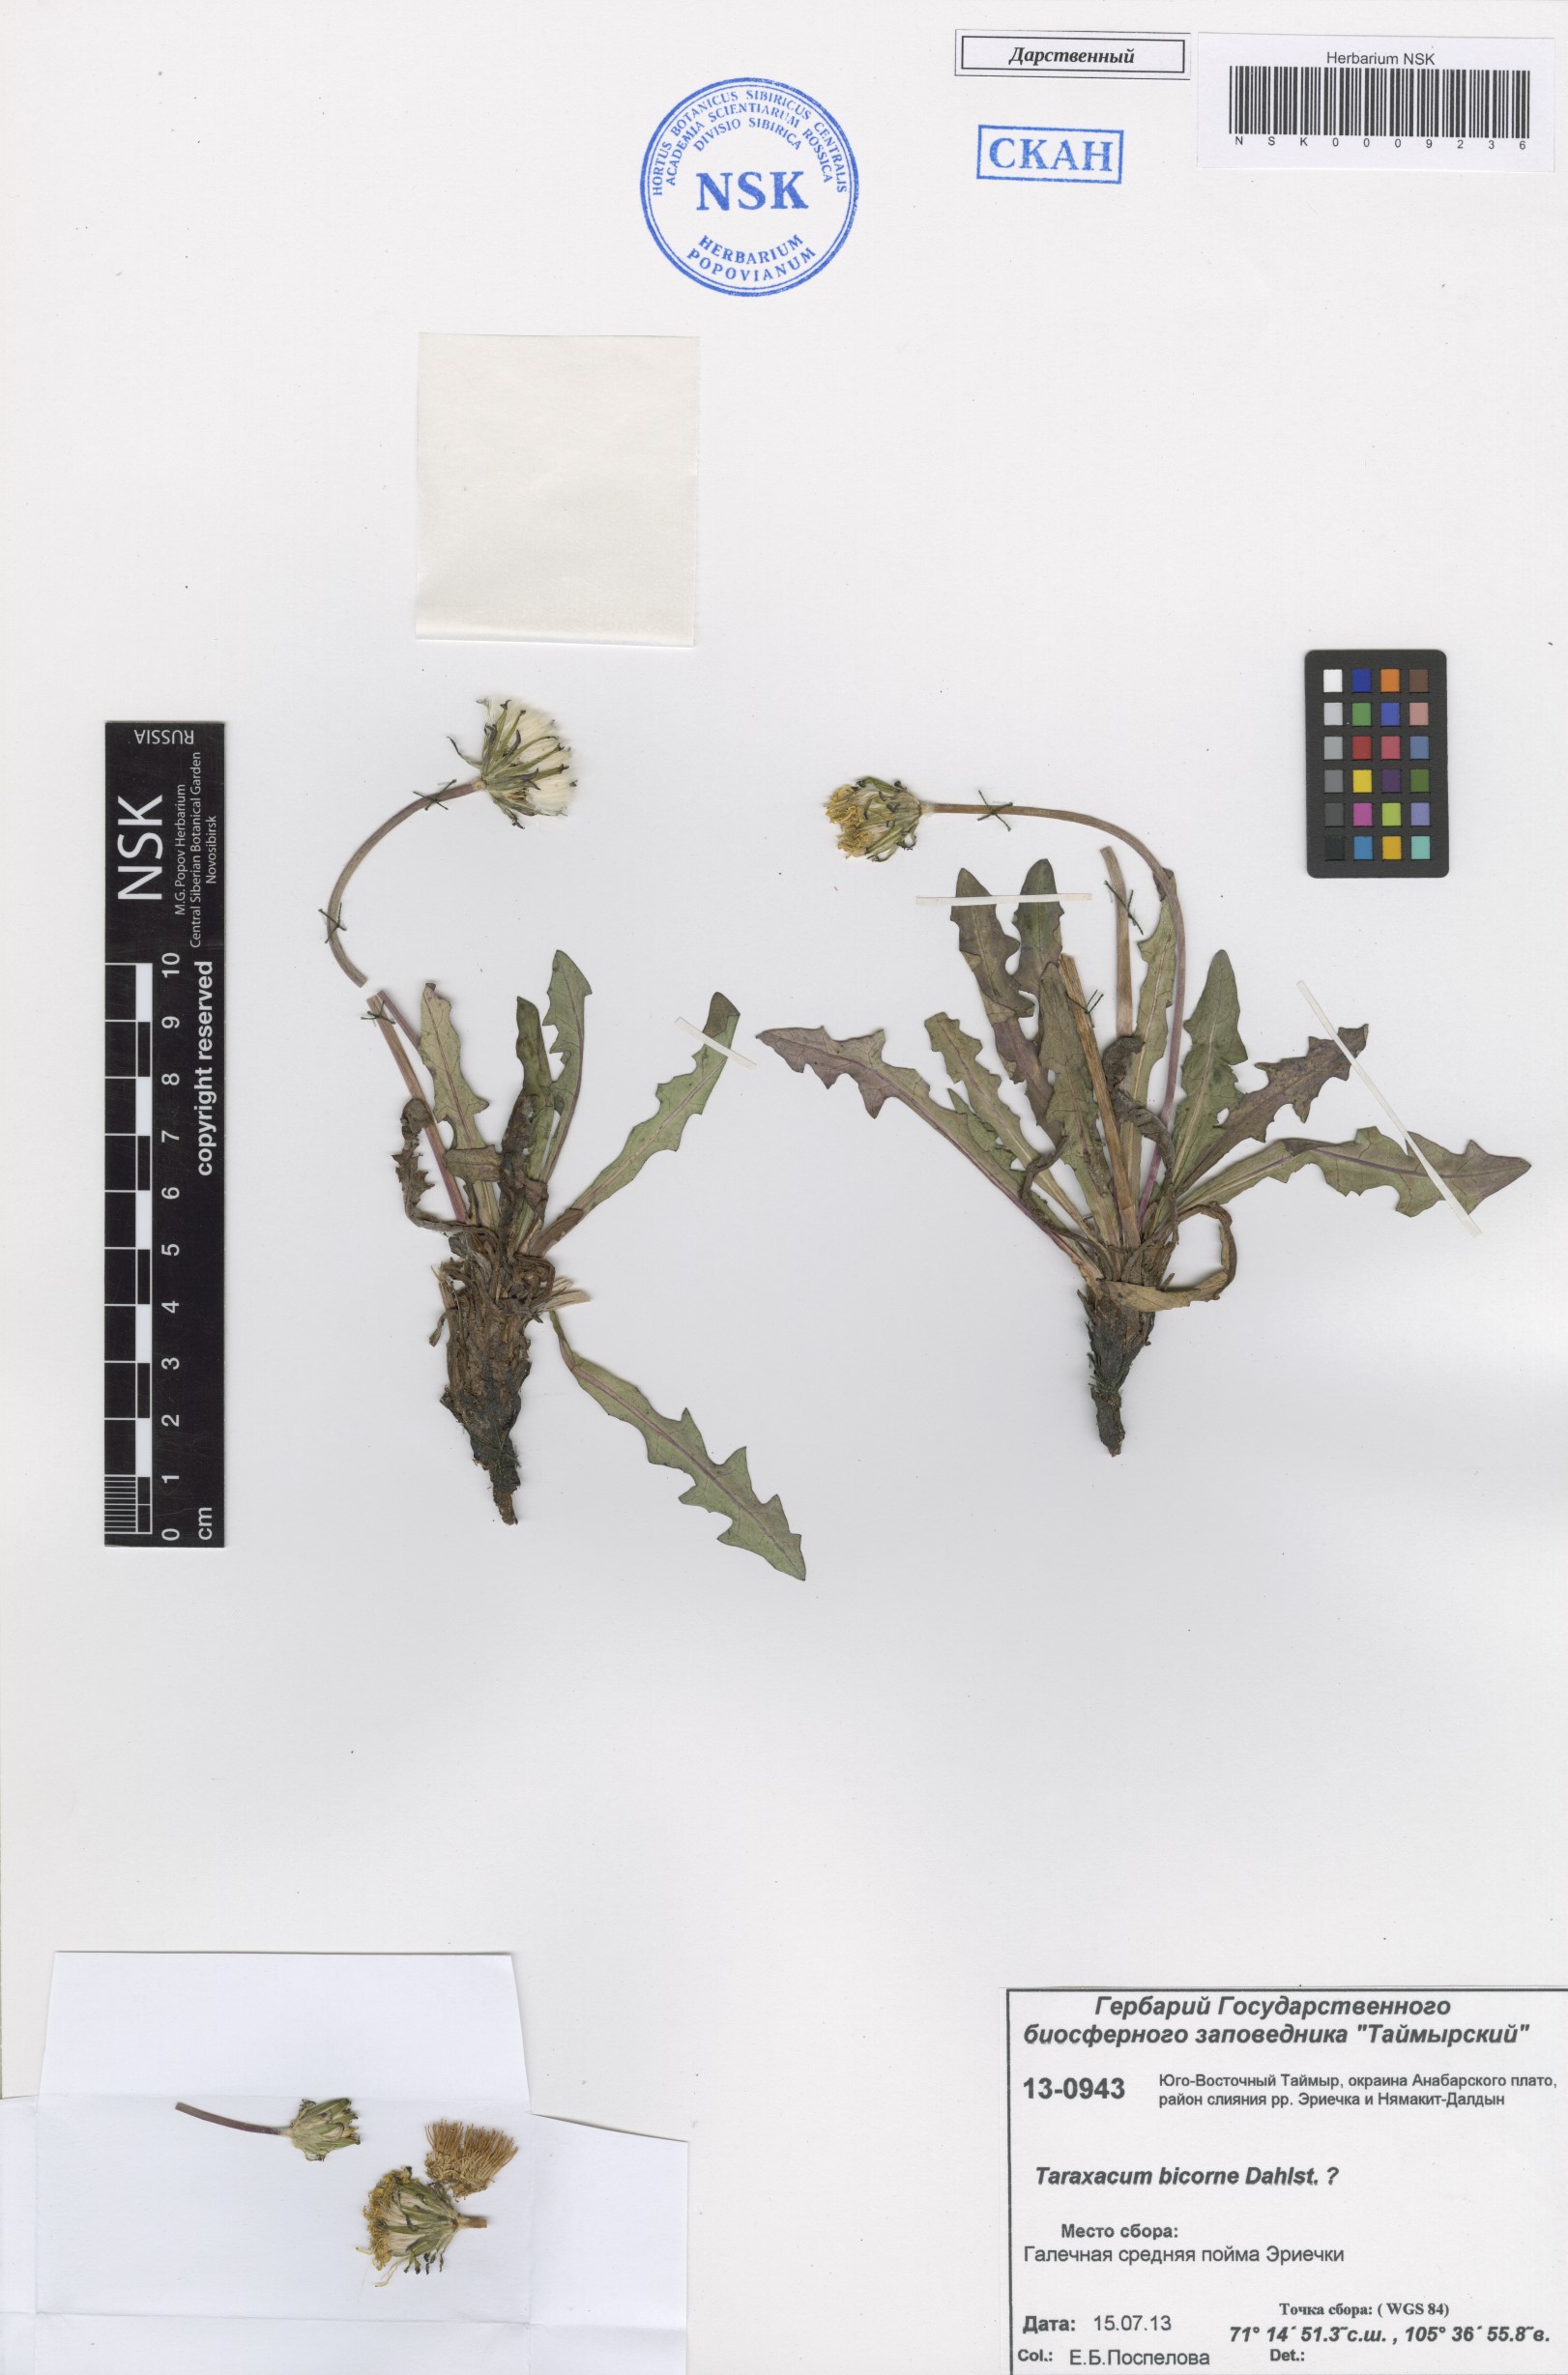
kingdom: Plantae
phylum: Tracheophyta
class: Magnoliopsida
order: Asterales
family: Asteraceae
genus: Taraxacum
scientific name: Taraxacum bicorne
